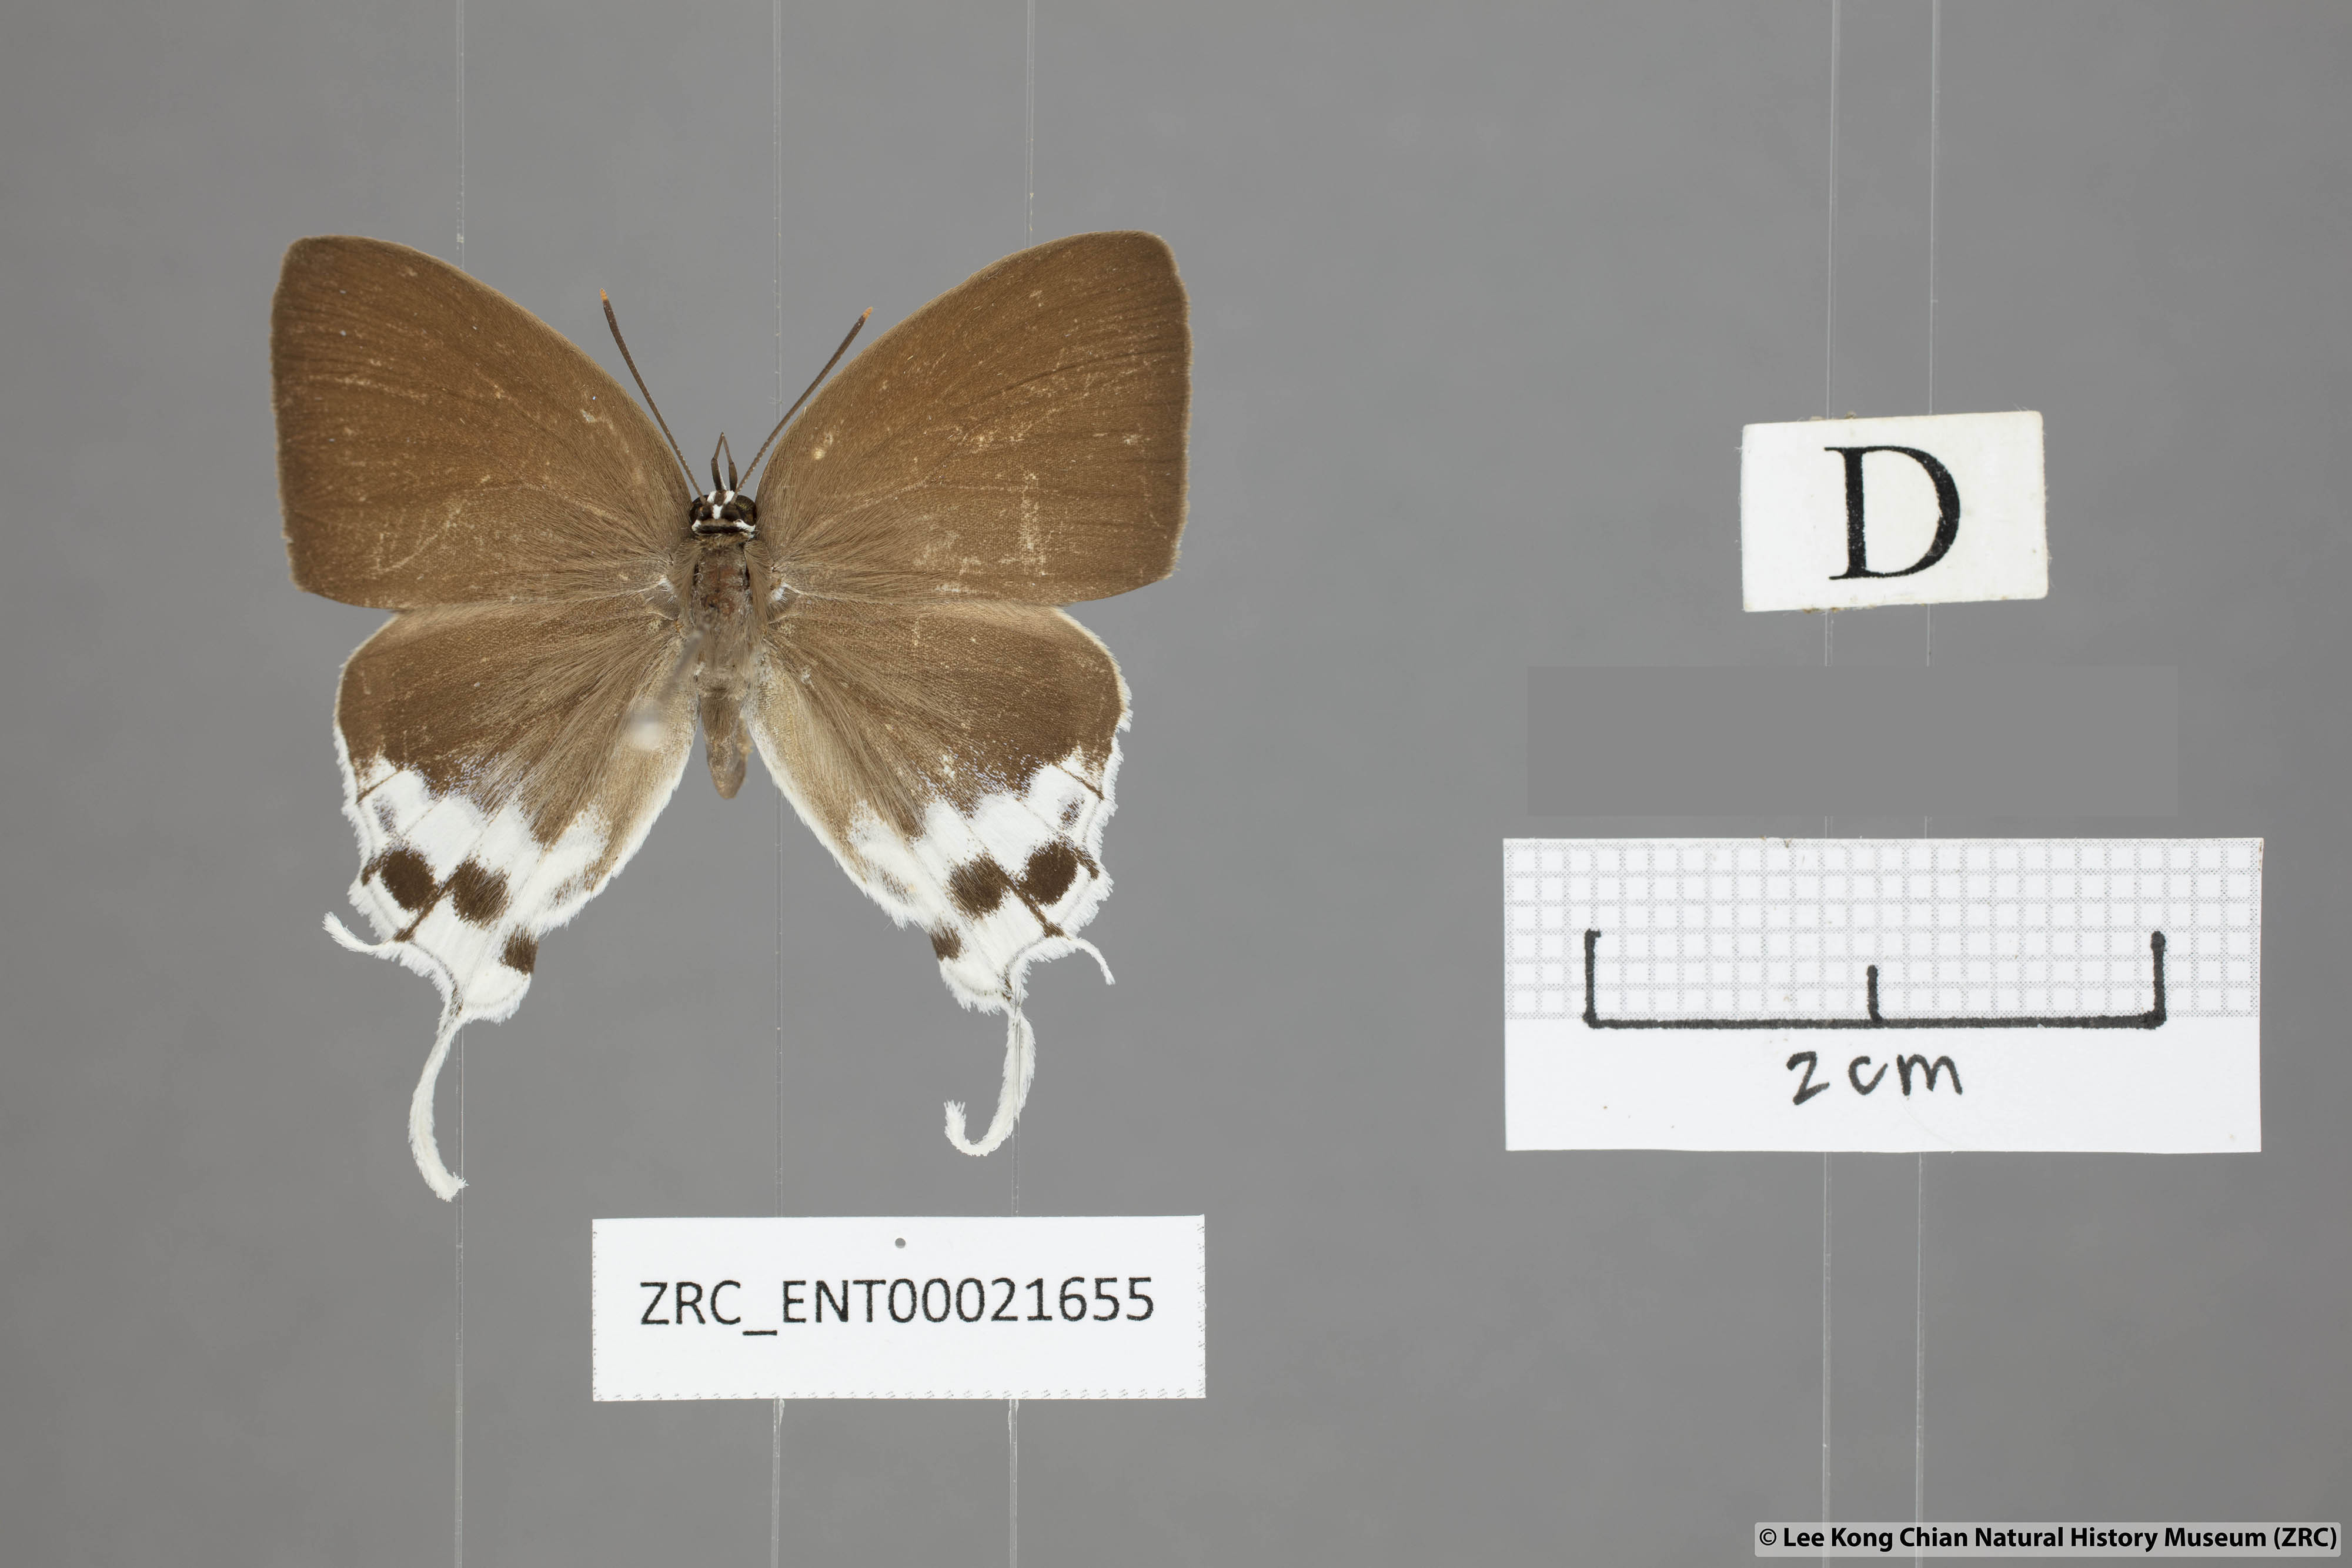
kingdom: Animalia
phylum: Arthropoda
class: Insecta
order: Lepidoptera
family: Lycaenidae
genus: Thrix
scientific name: Thrix
